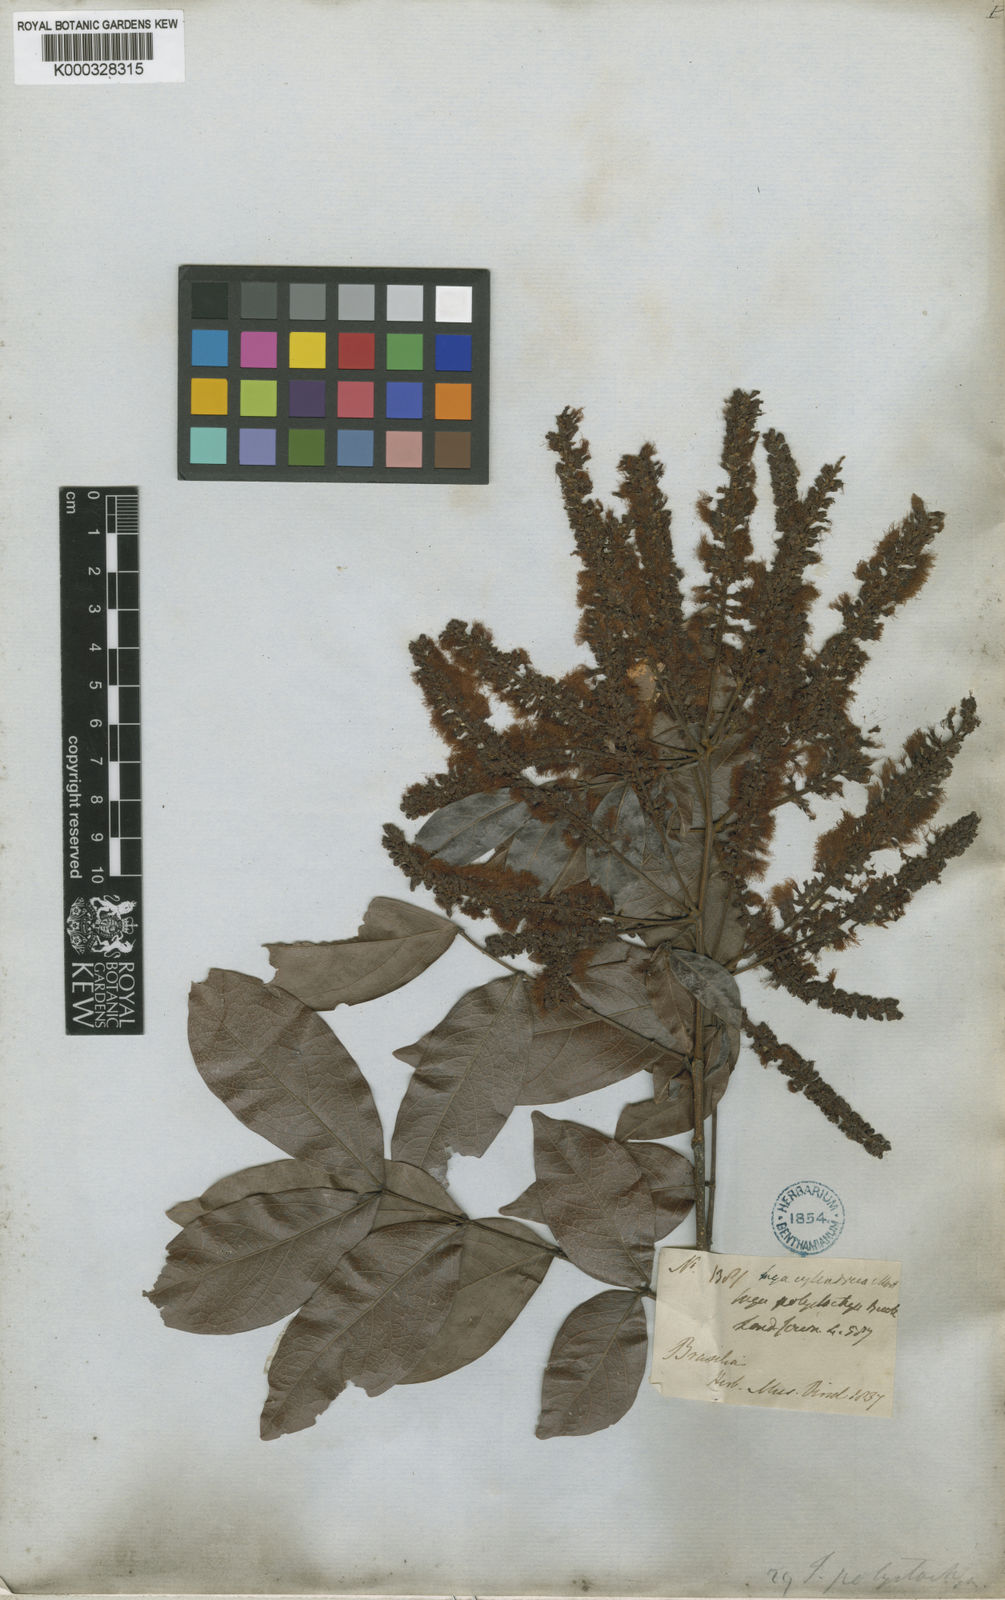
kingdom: Plantae
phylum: Tracheophyta
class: Magnoliopsida
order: Fabales
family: Fabaceae
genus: Inga
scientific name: Inga cylindrica
